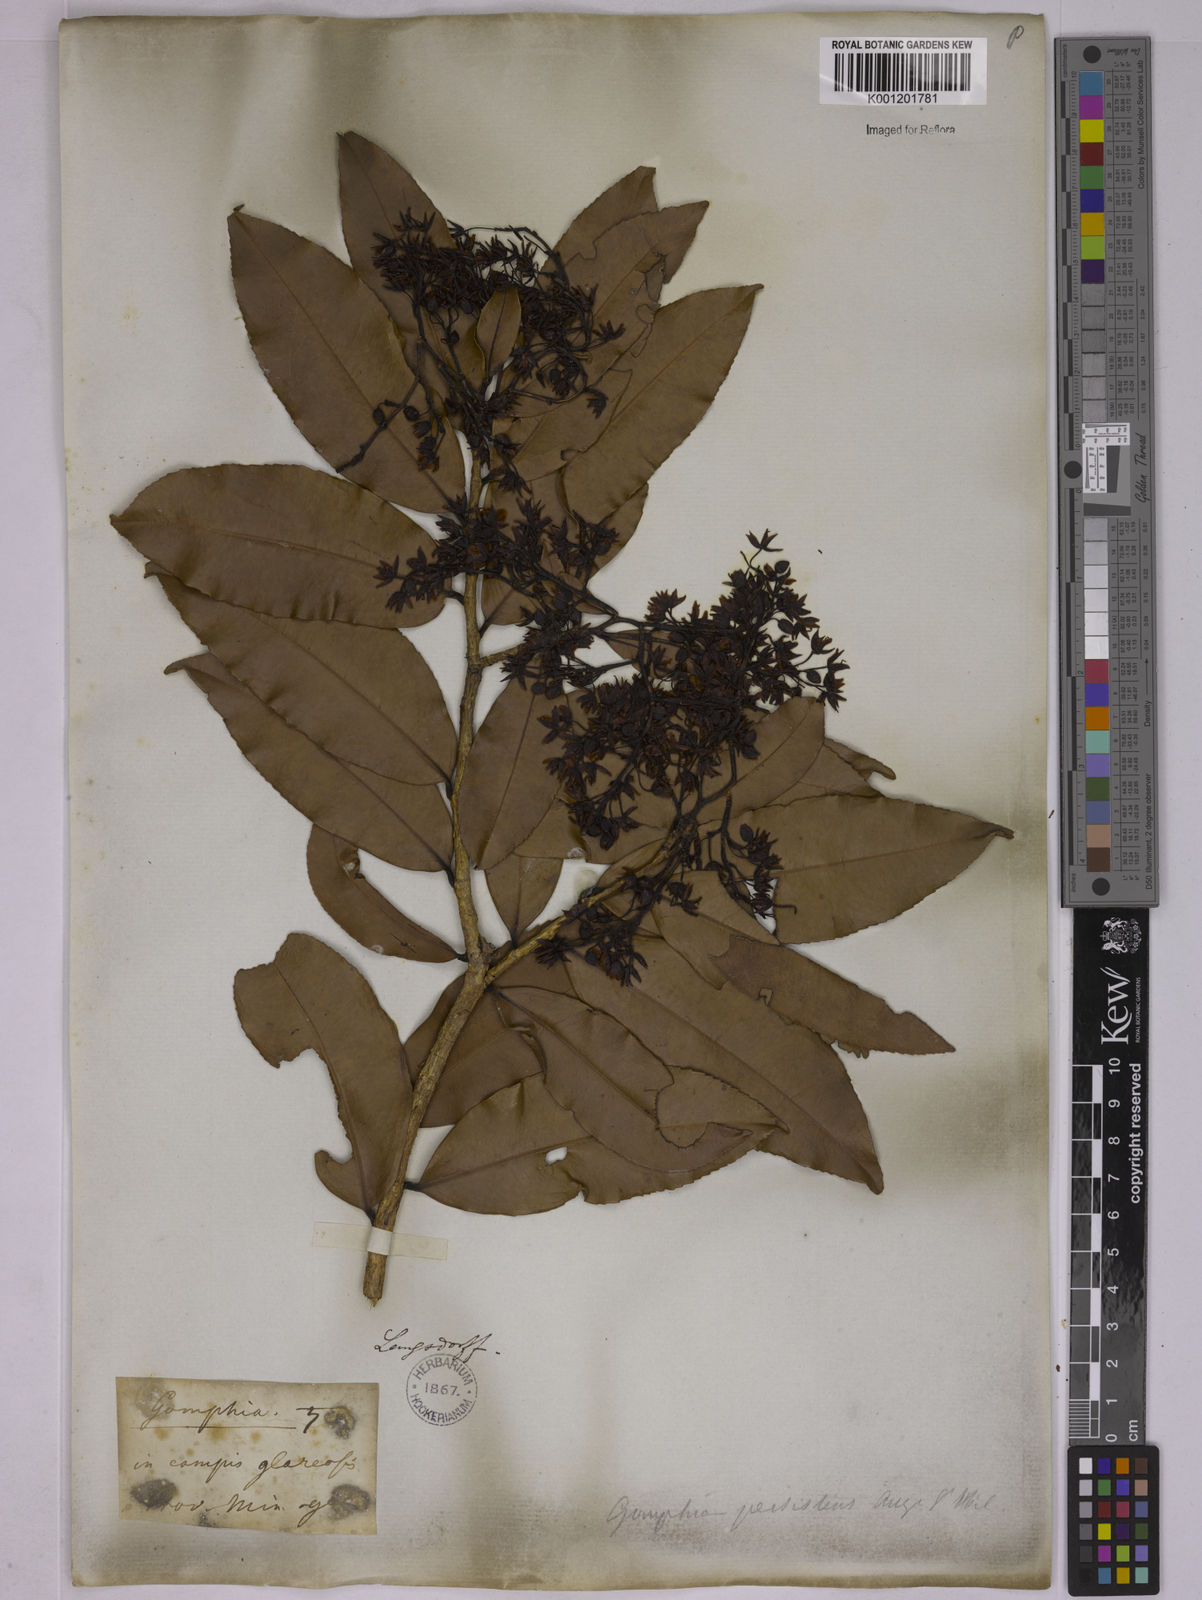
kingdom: Plantae
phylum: Tracheophyta
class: Magnoliopsida
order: Malpighiales
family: Ochnaceae
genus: Ouratea
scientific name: Ouratea semiserrata
